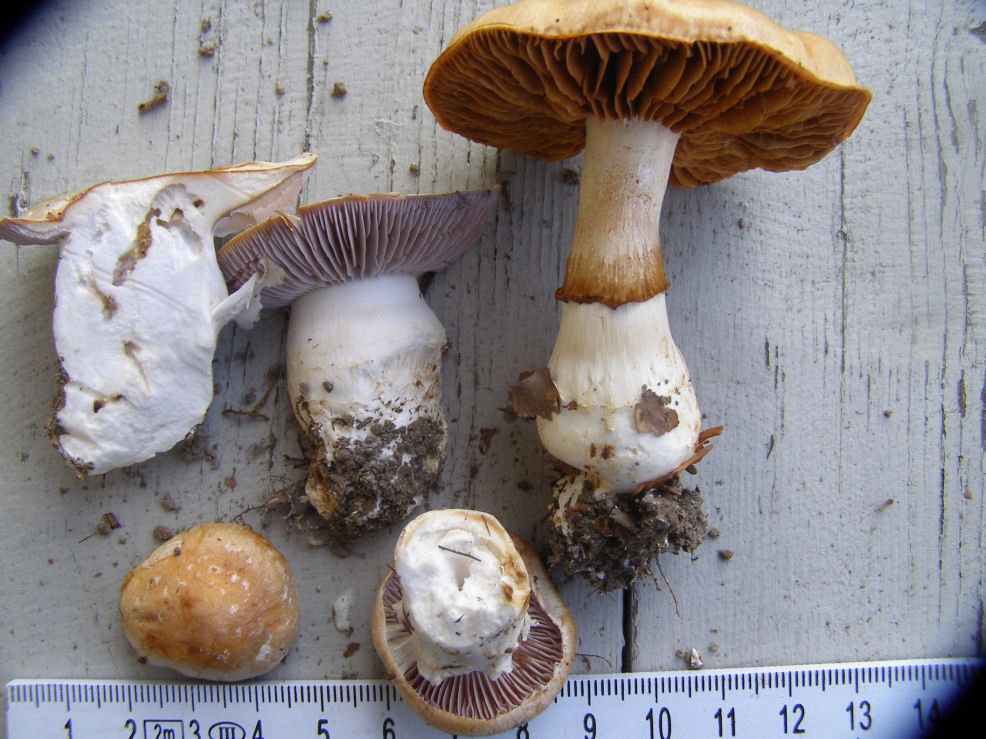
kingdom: Fungi
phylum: Basidiomycota
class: Agaricomycetes
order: Agaricales
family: Cortinariaceae
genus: Phlegmacium
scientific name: Phlegmacium
